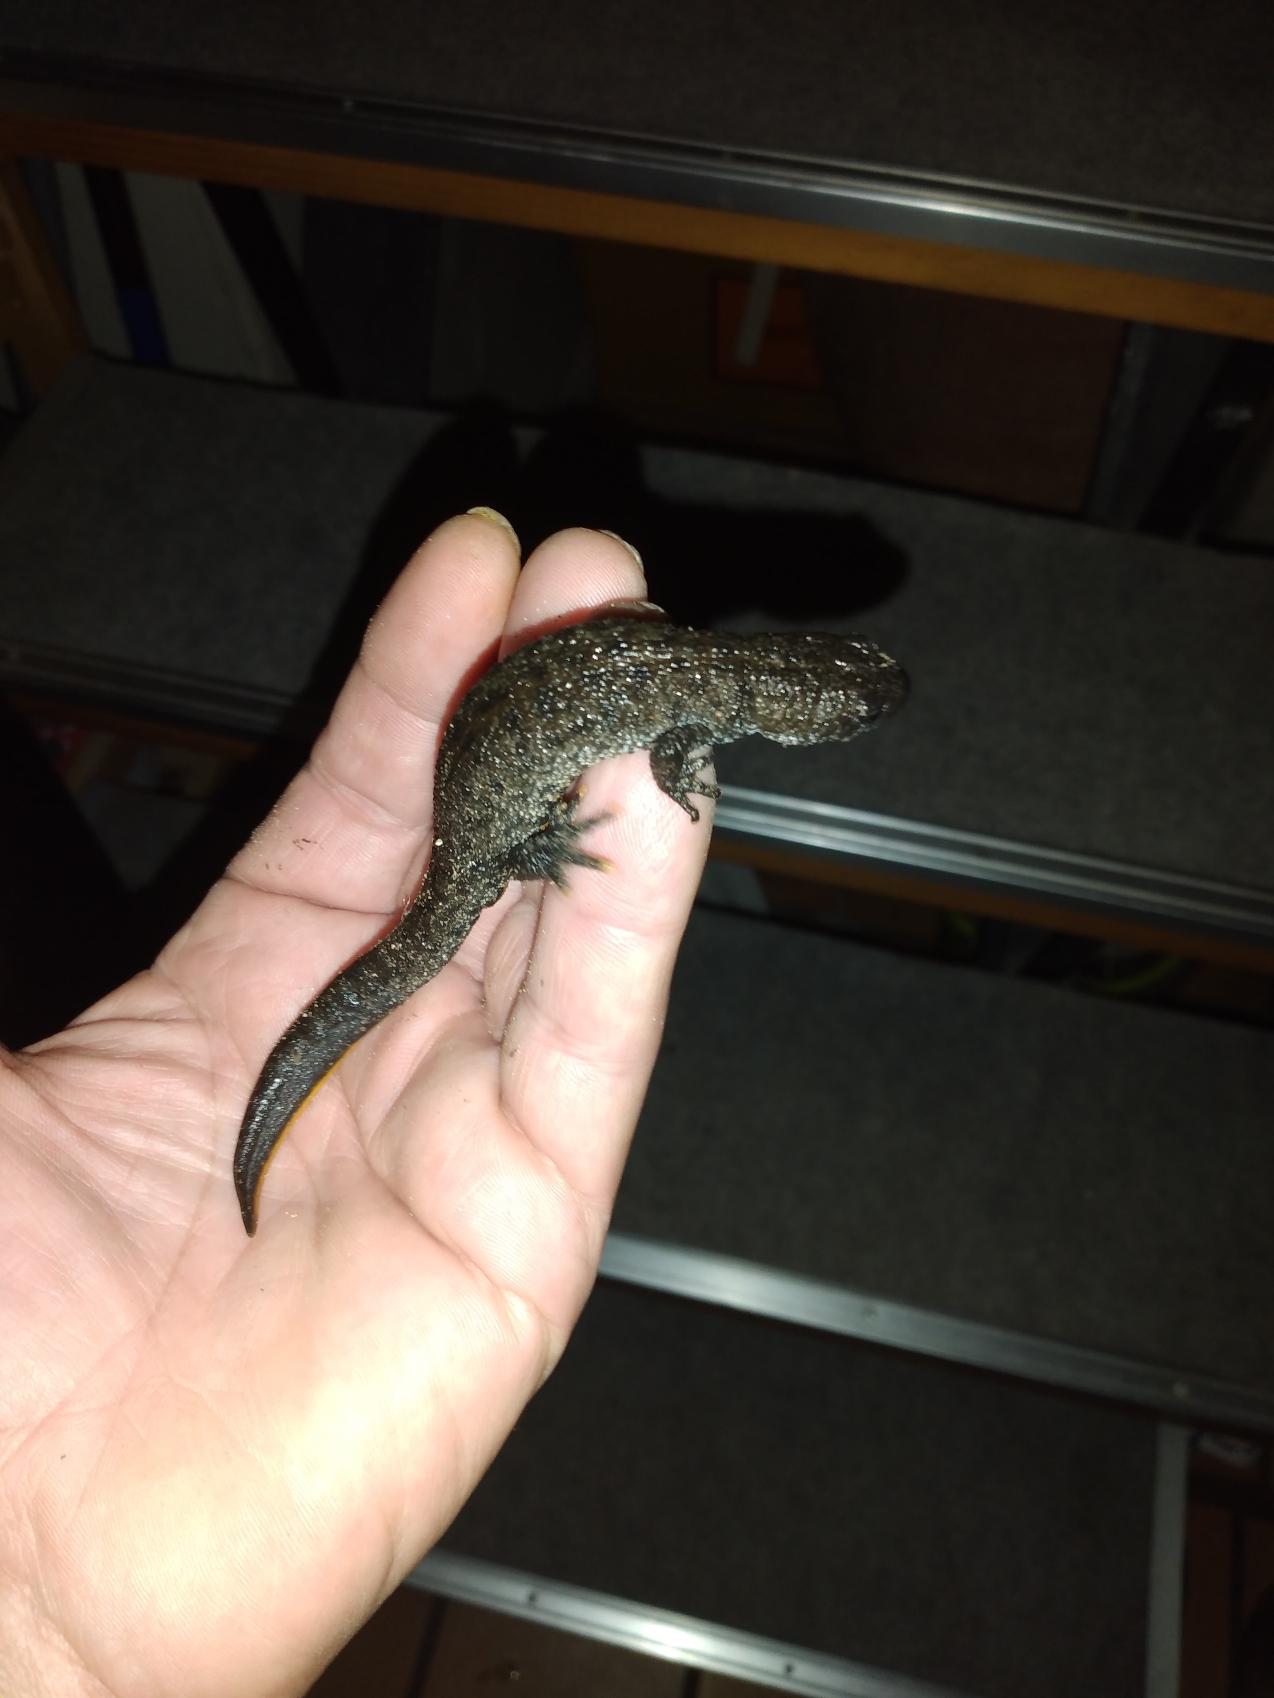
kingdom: Animalia
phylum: Chordata
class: Amphibia
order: Caudata
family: Salamandridae
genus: Triturus
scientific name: Triturus cristatus
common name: Stor vandsalamander
